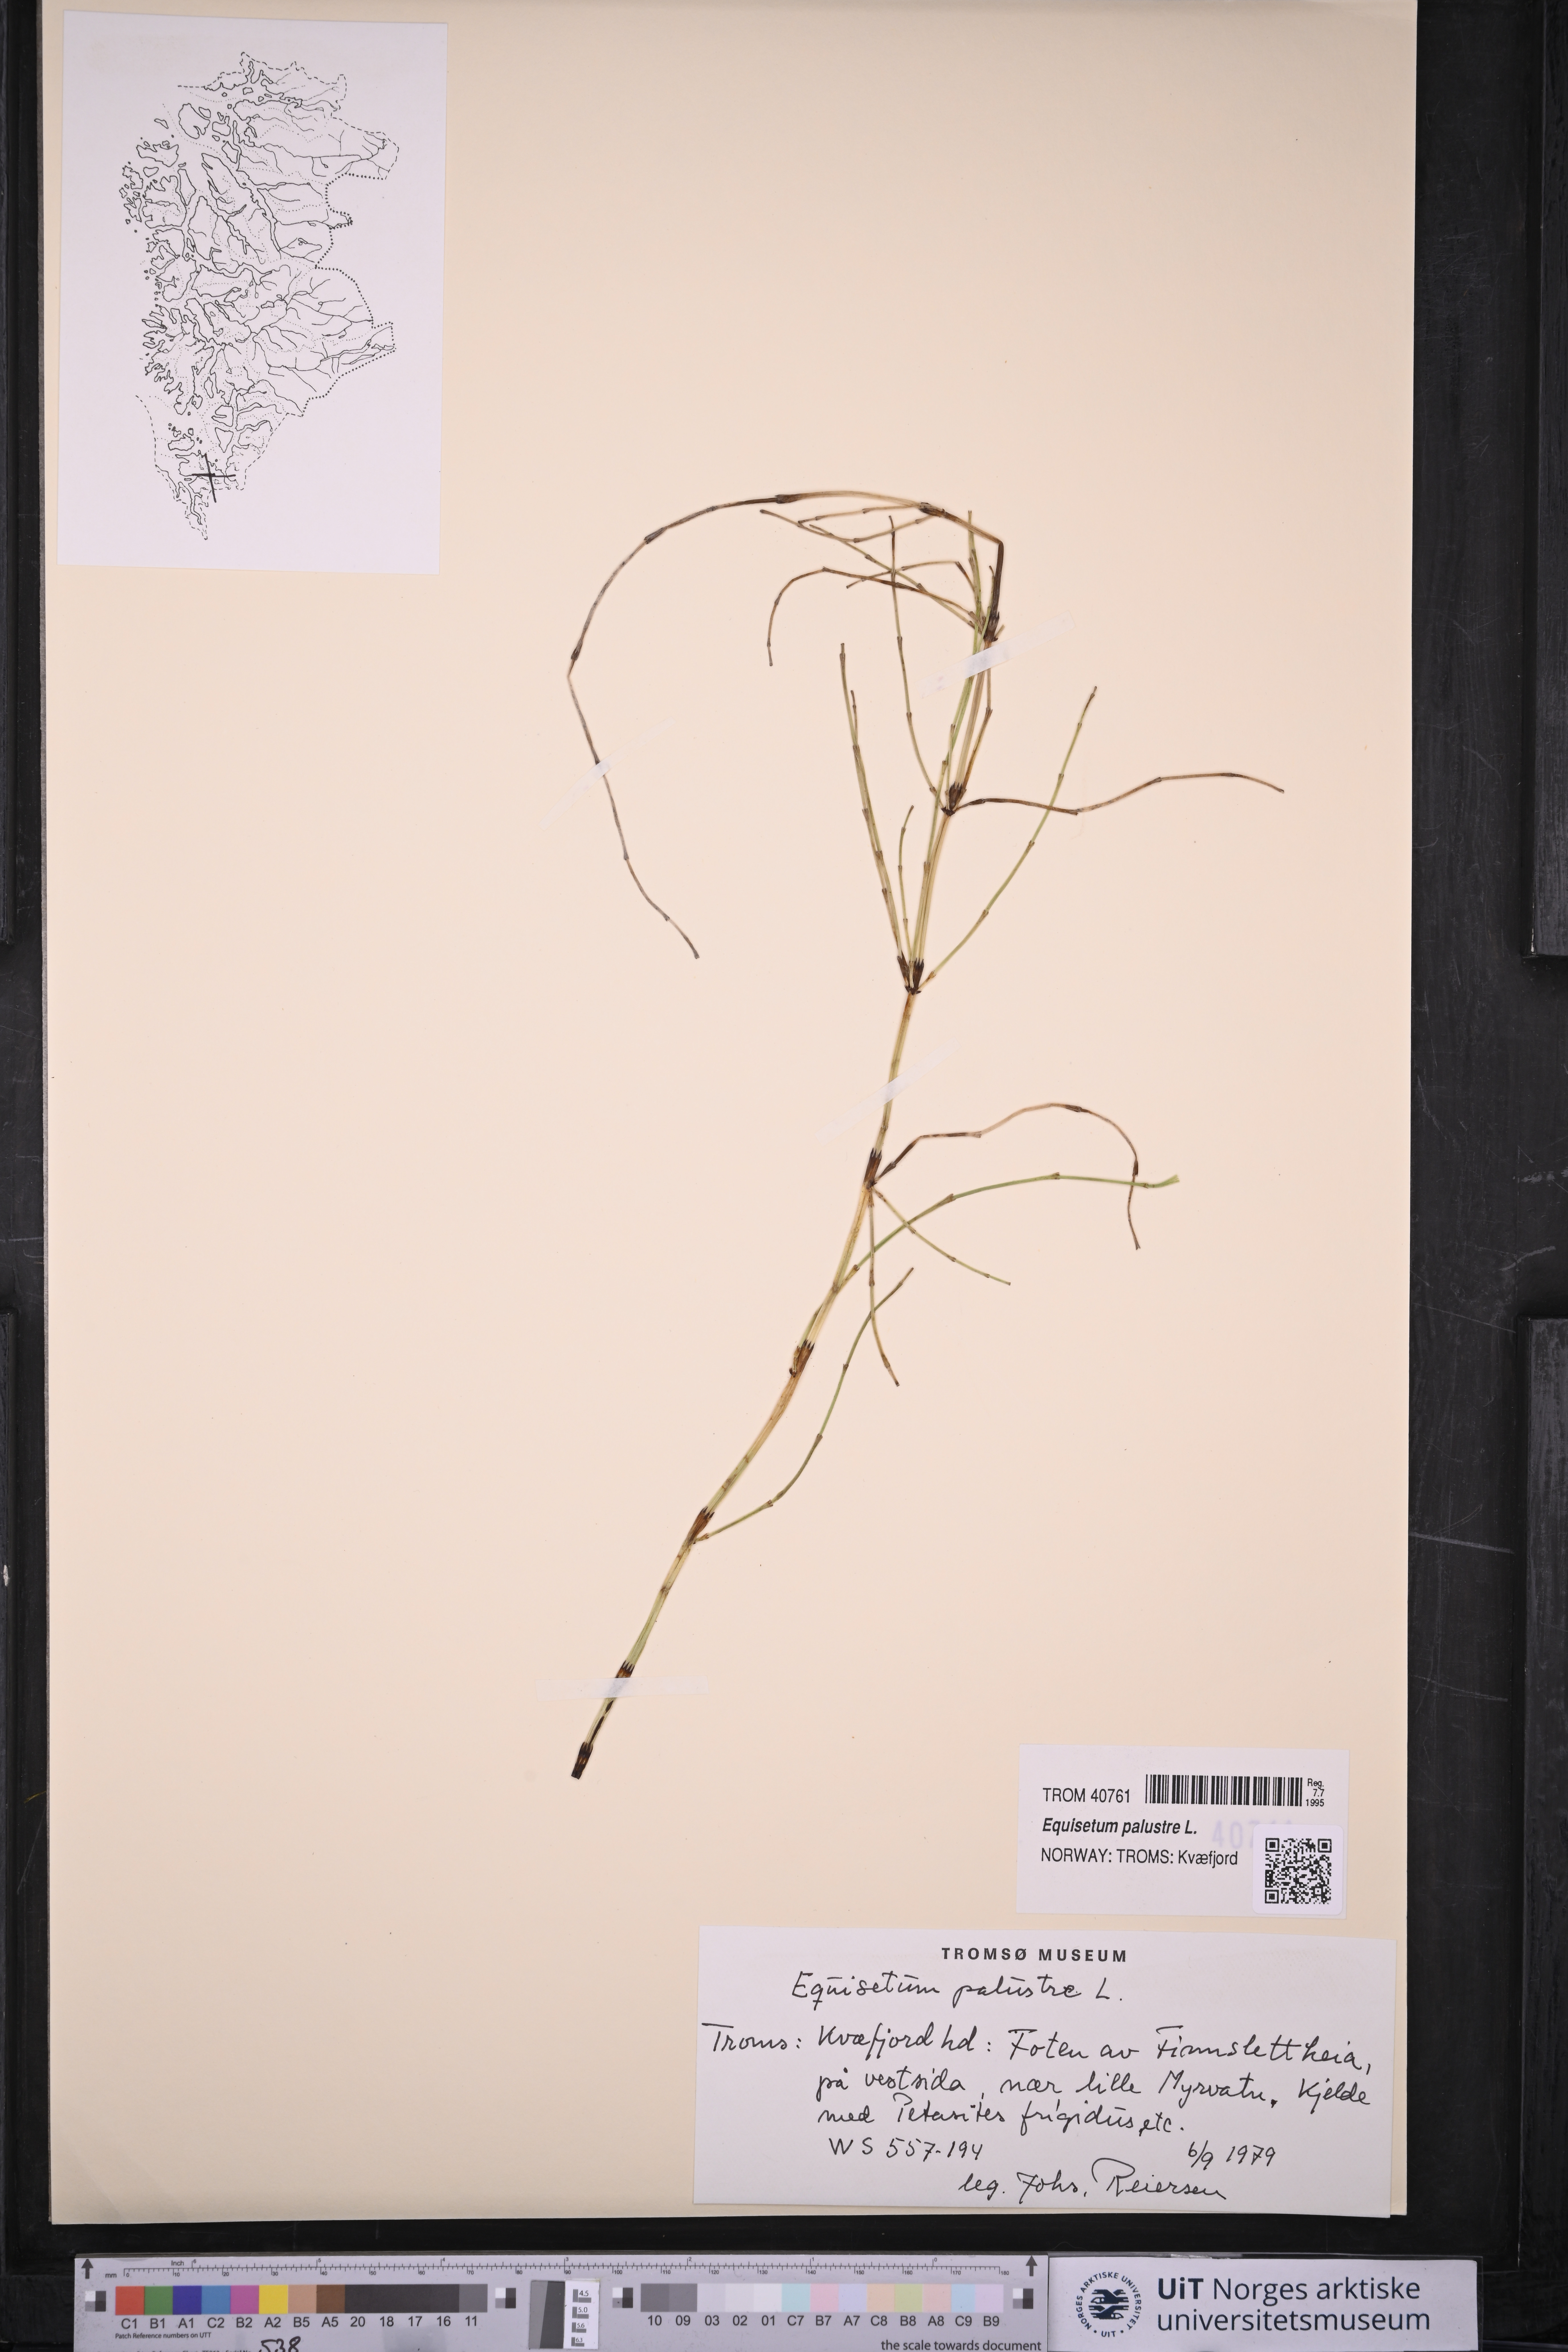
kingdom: Plantae
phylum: Tracheophyta
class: Polypodiopsida
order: Equisetales
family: Equisetaceae
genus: Equisetum
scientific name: Equisetum palustre
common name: Marsh horsetail
